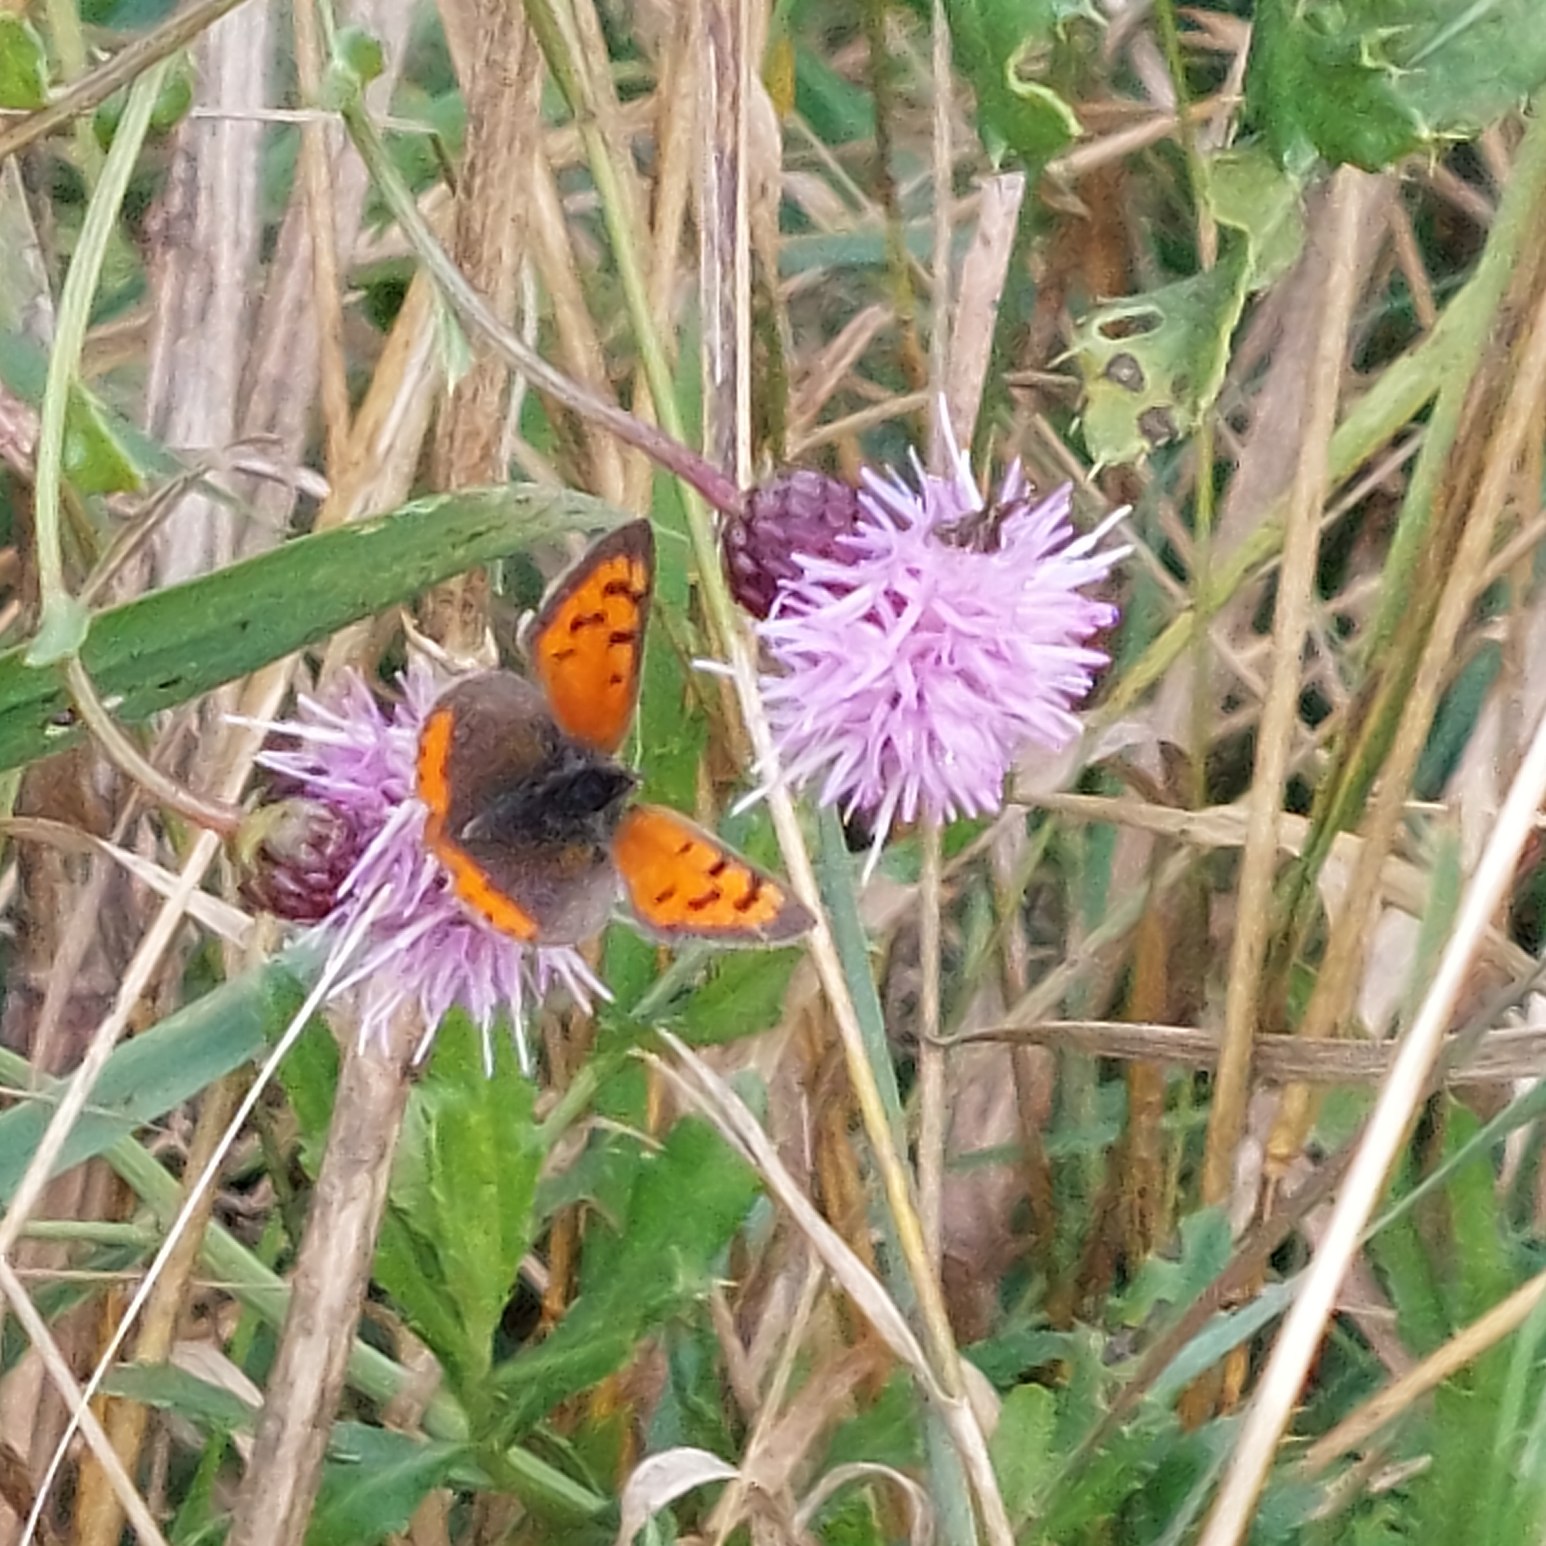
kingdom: Animalia
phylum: Arthropoda
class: Insecta
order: Lepidoptera
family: Lycaenidae
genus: Lycaena
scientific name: Lycaena phlaeas
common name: Lille ildfugl
